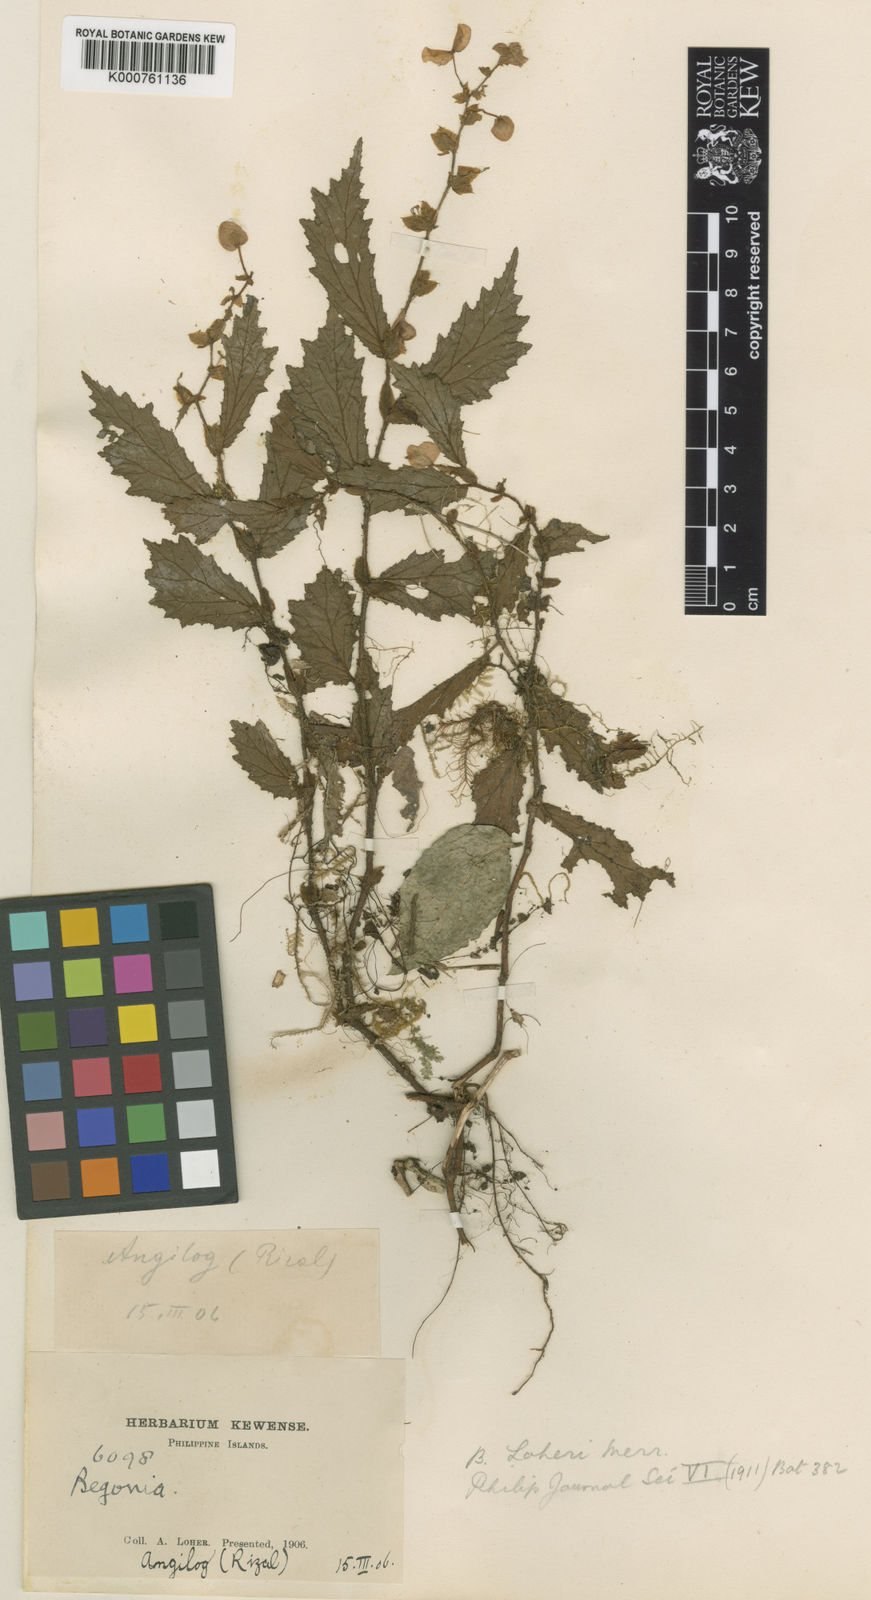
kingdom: Plantae
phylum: Tracheophyta
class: Magnoliopsida
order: Cucurbitales
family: Begoniaceae
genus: Begonia
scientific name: Begonia loheri
